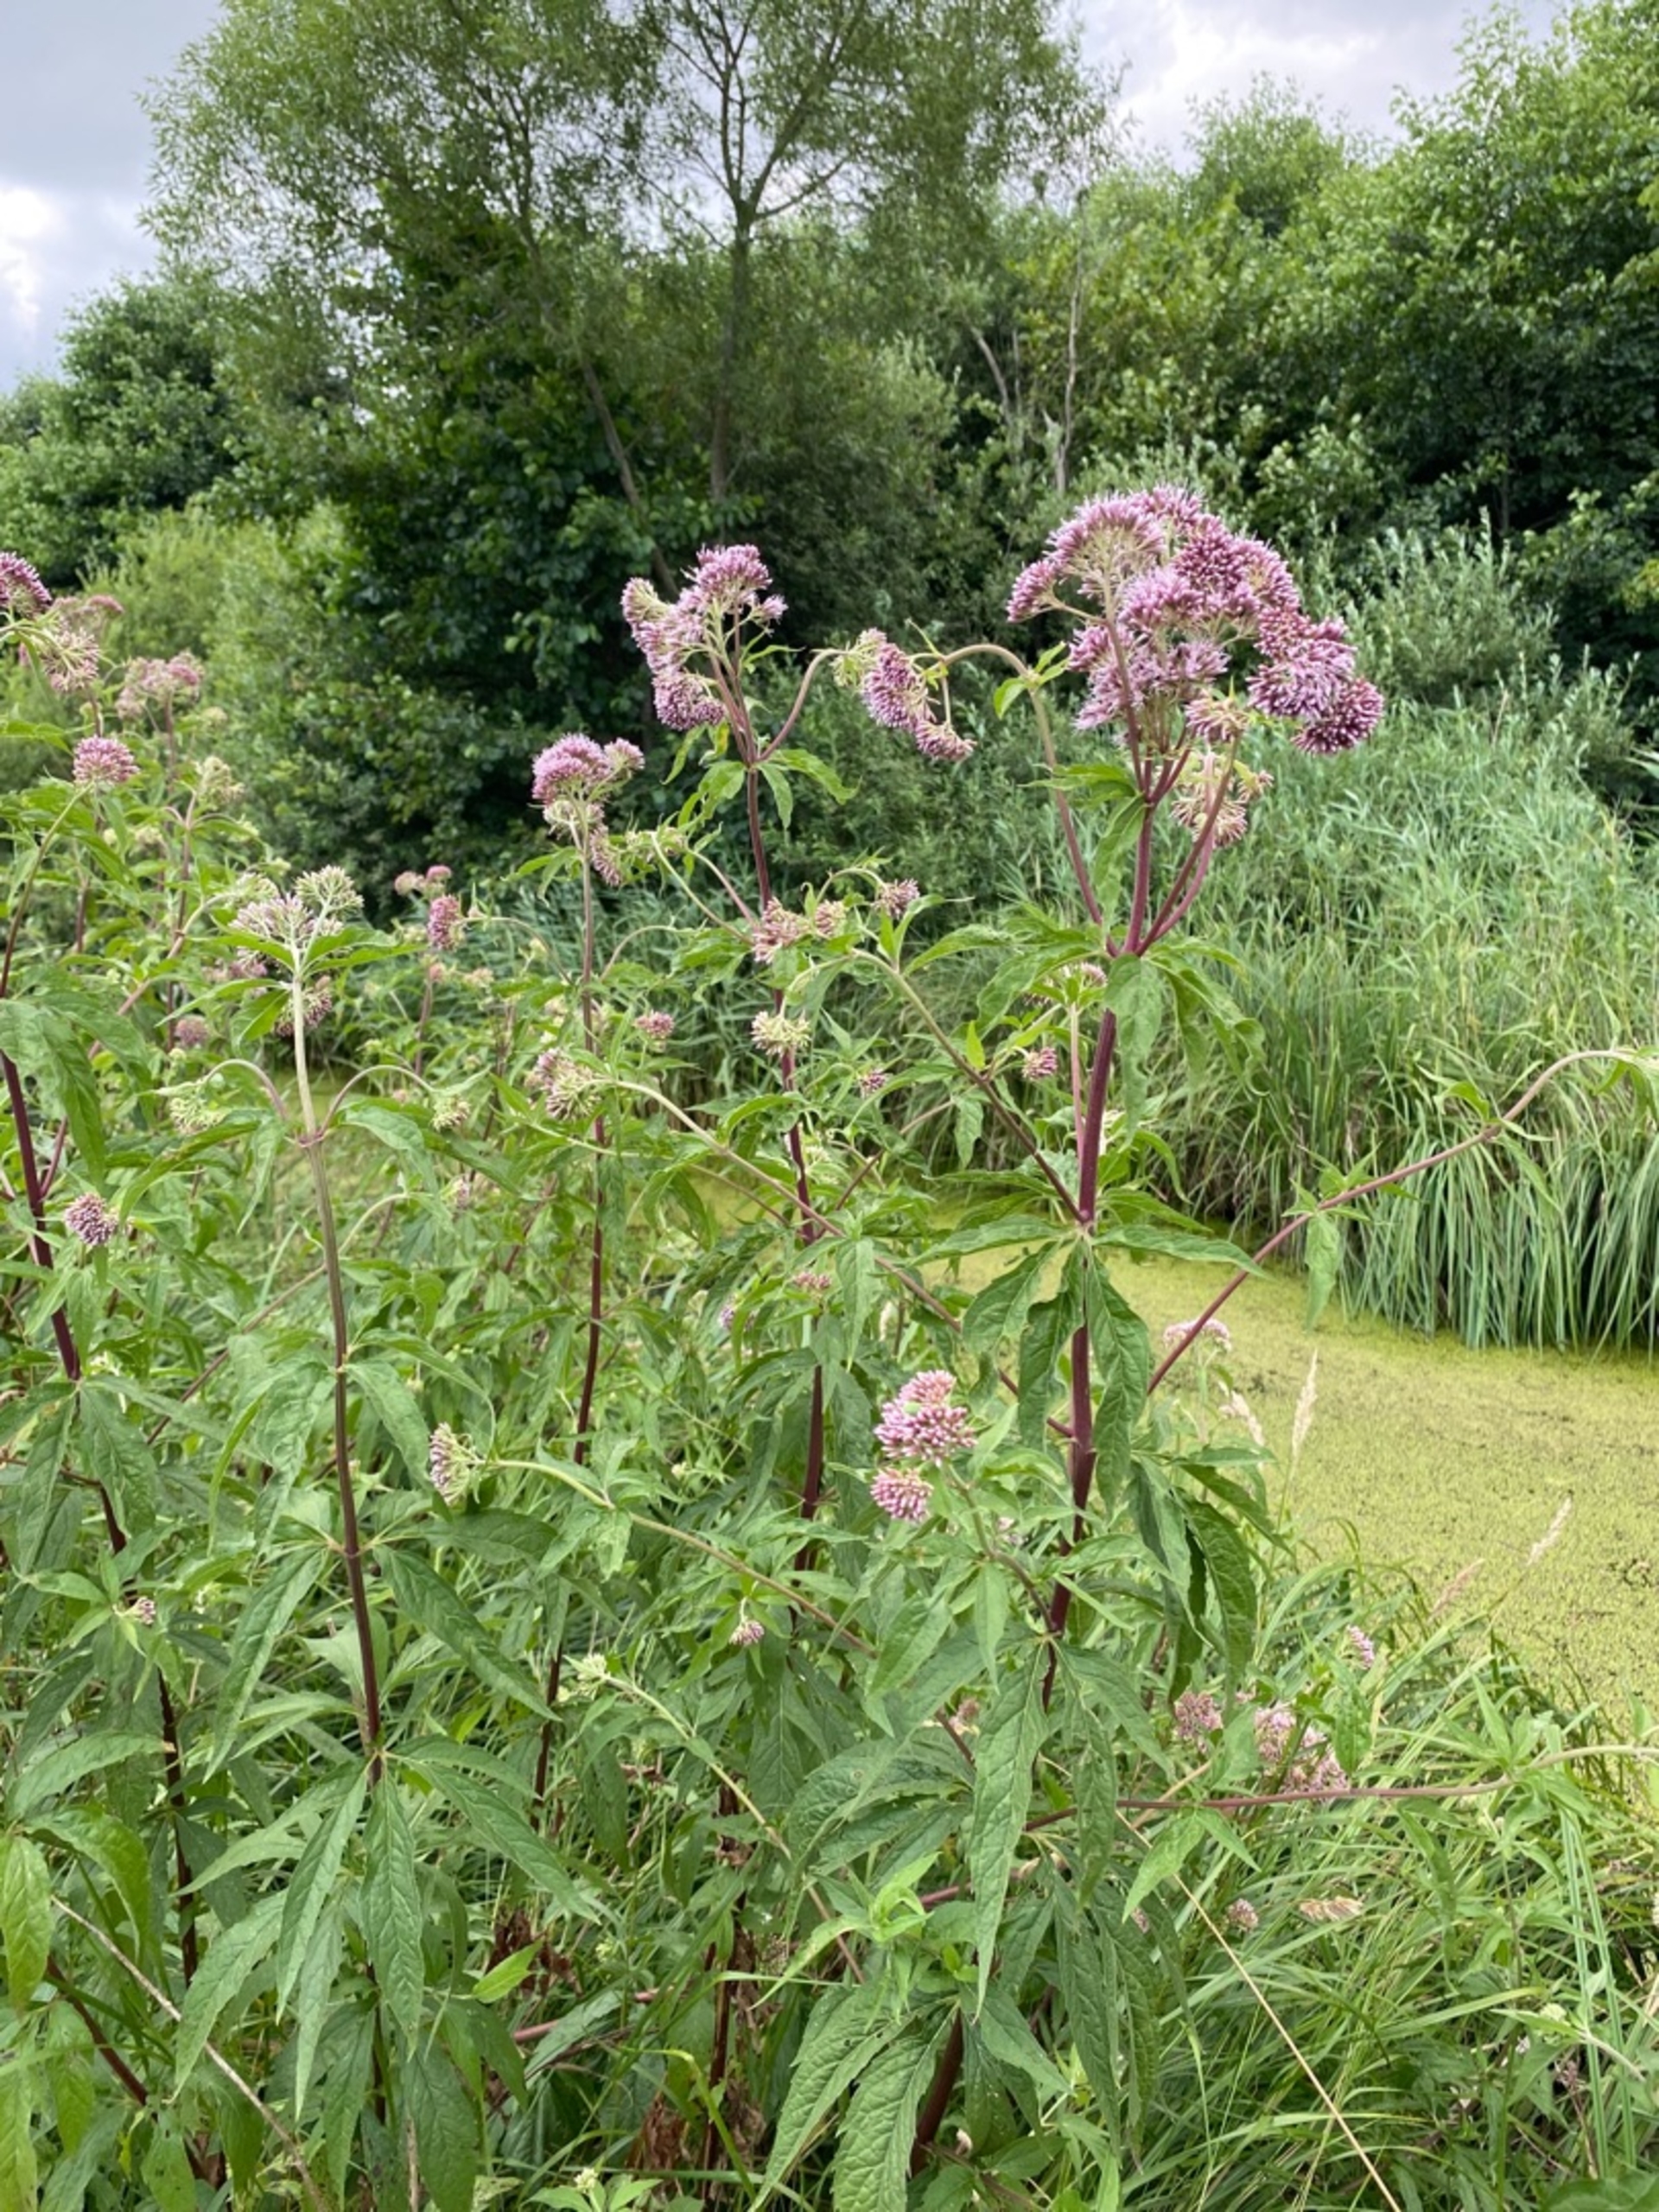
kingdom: Plantae
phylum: Tracheophyta
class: Magnoliopsida
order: Asterales
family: Asteraceae
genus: Eupatorium
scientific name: Eupatorium cannabinum
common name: Hjortetrøst
